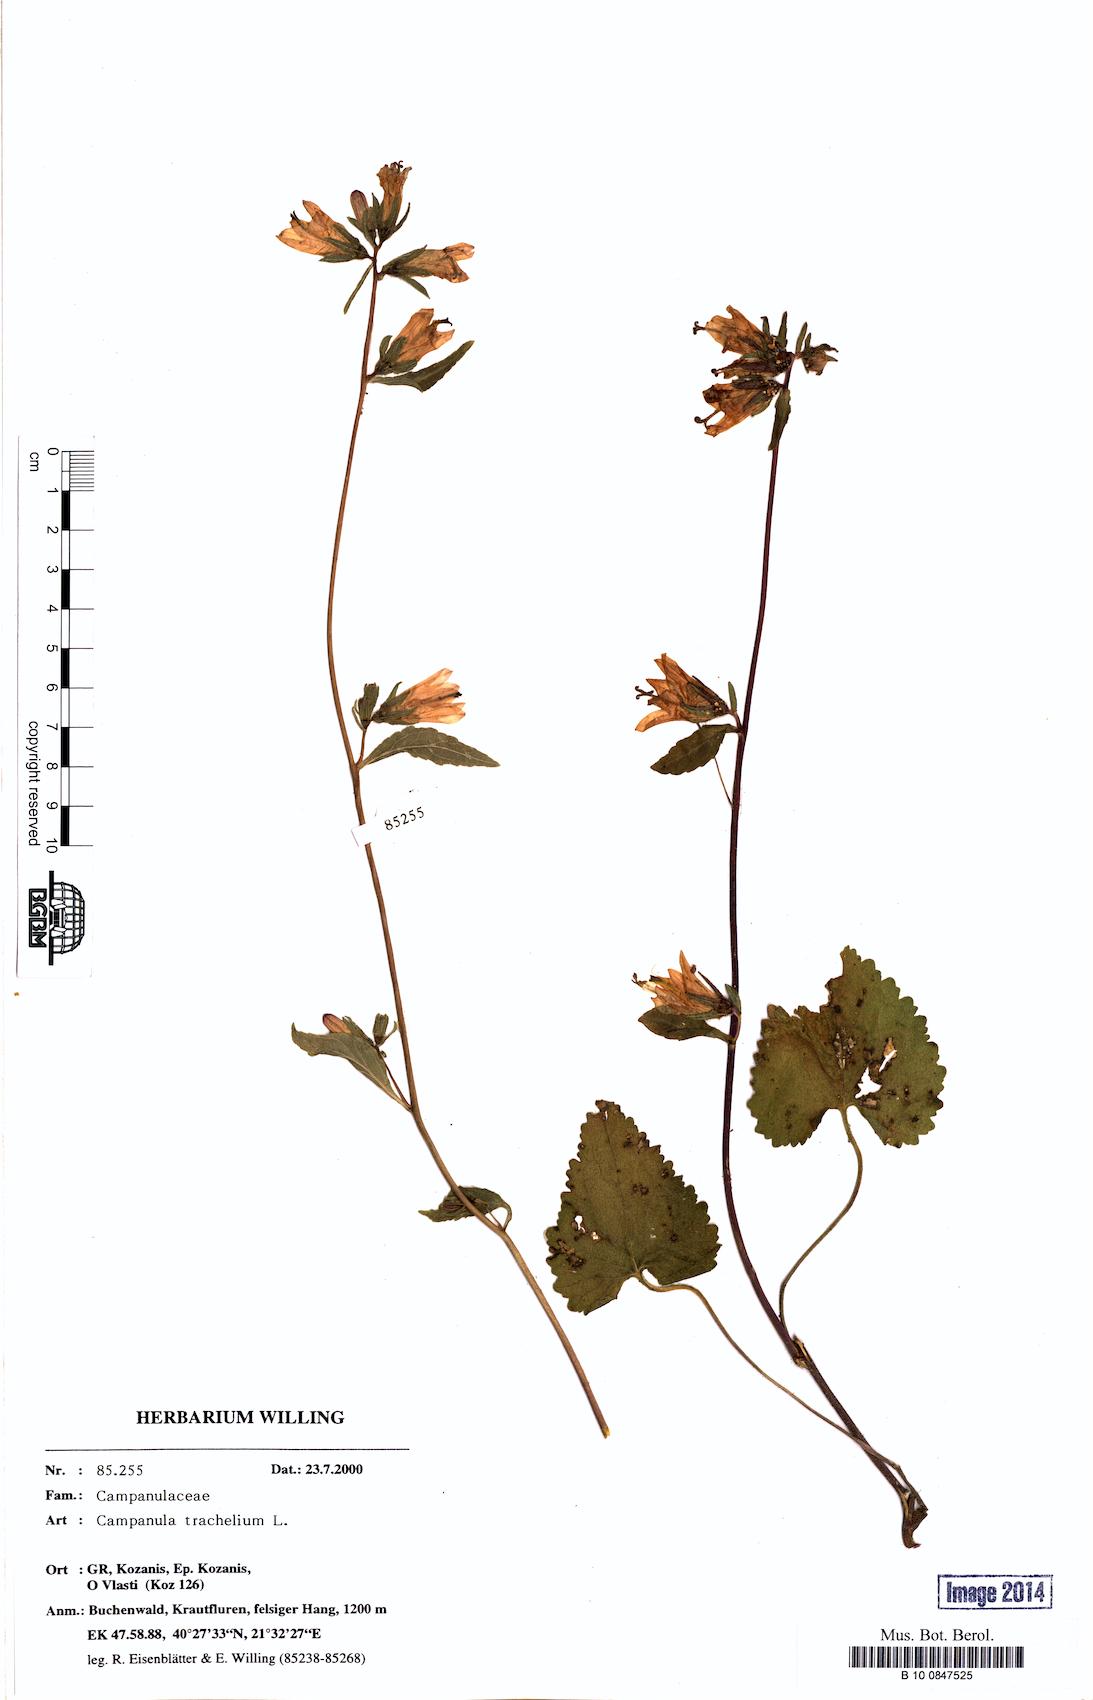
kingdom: Plantae
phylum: Tracheophyta
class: Magnoliopsida
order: Asterales
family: Campanulaceae
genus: Campanula
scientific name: Campanula trachelium
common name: Nettle-leaved bellflower
